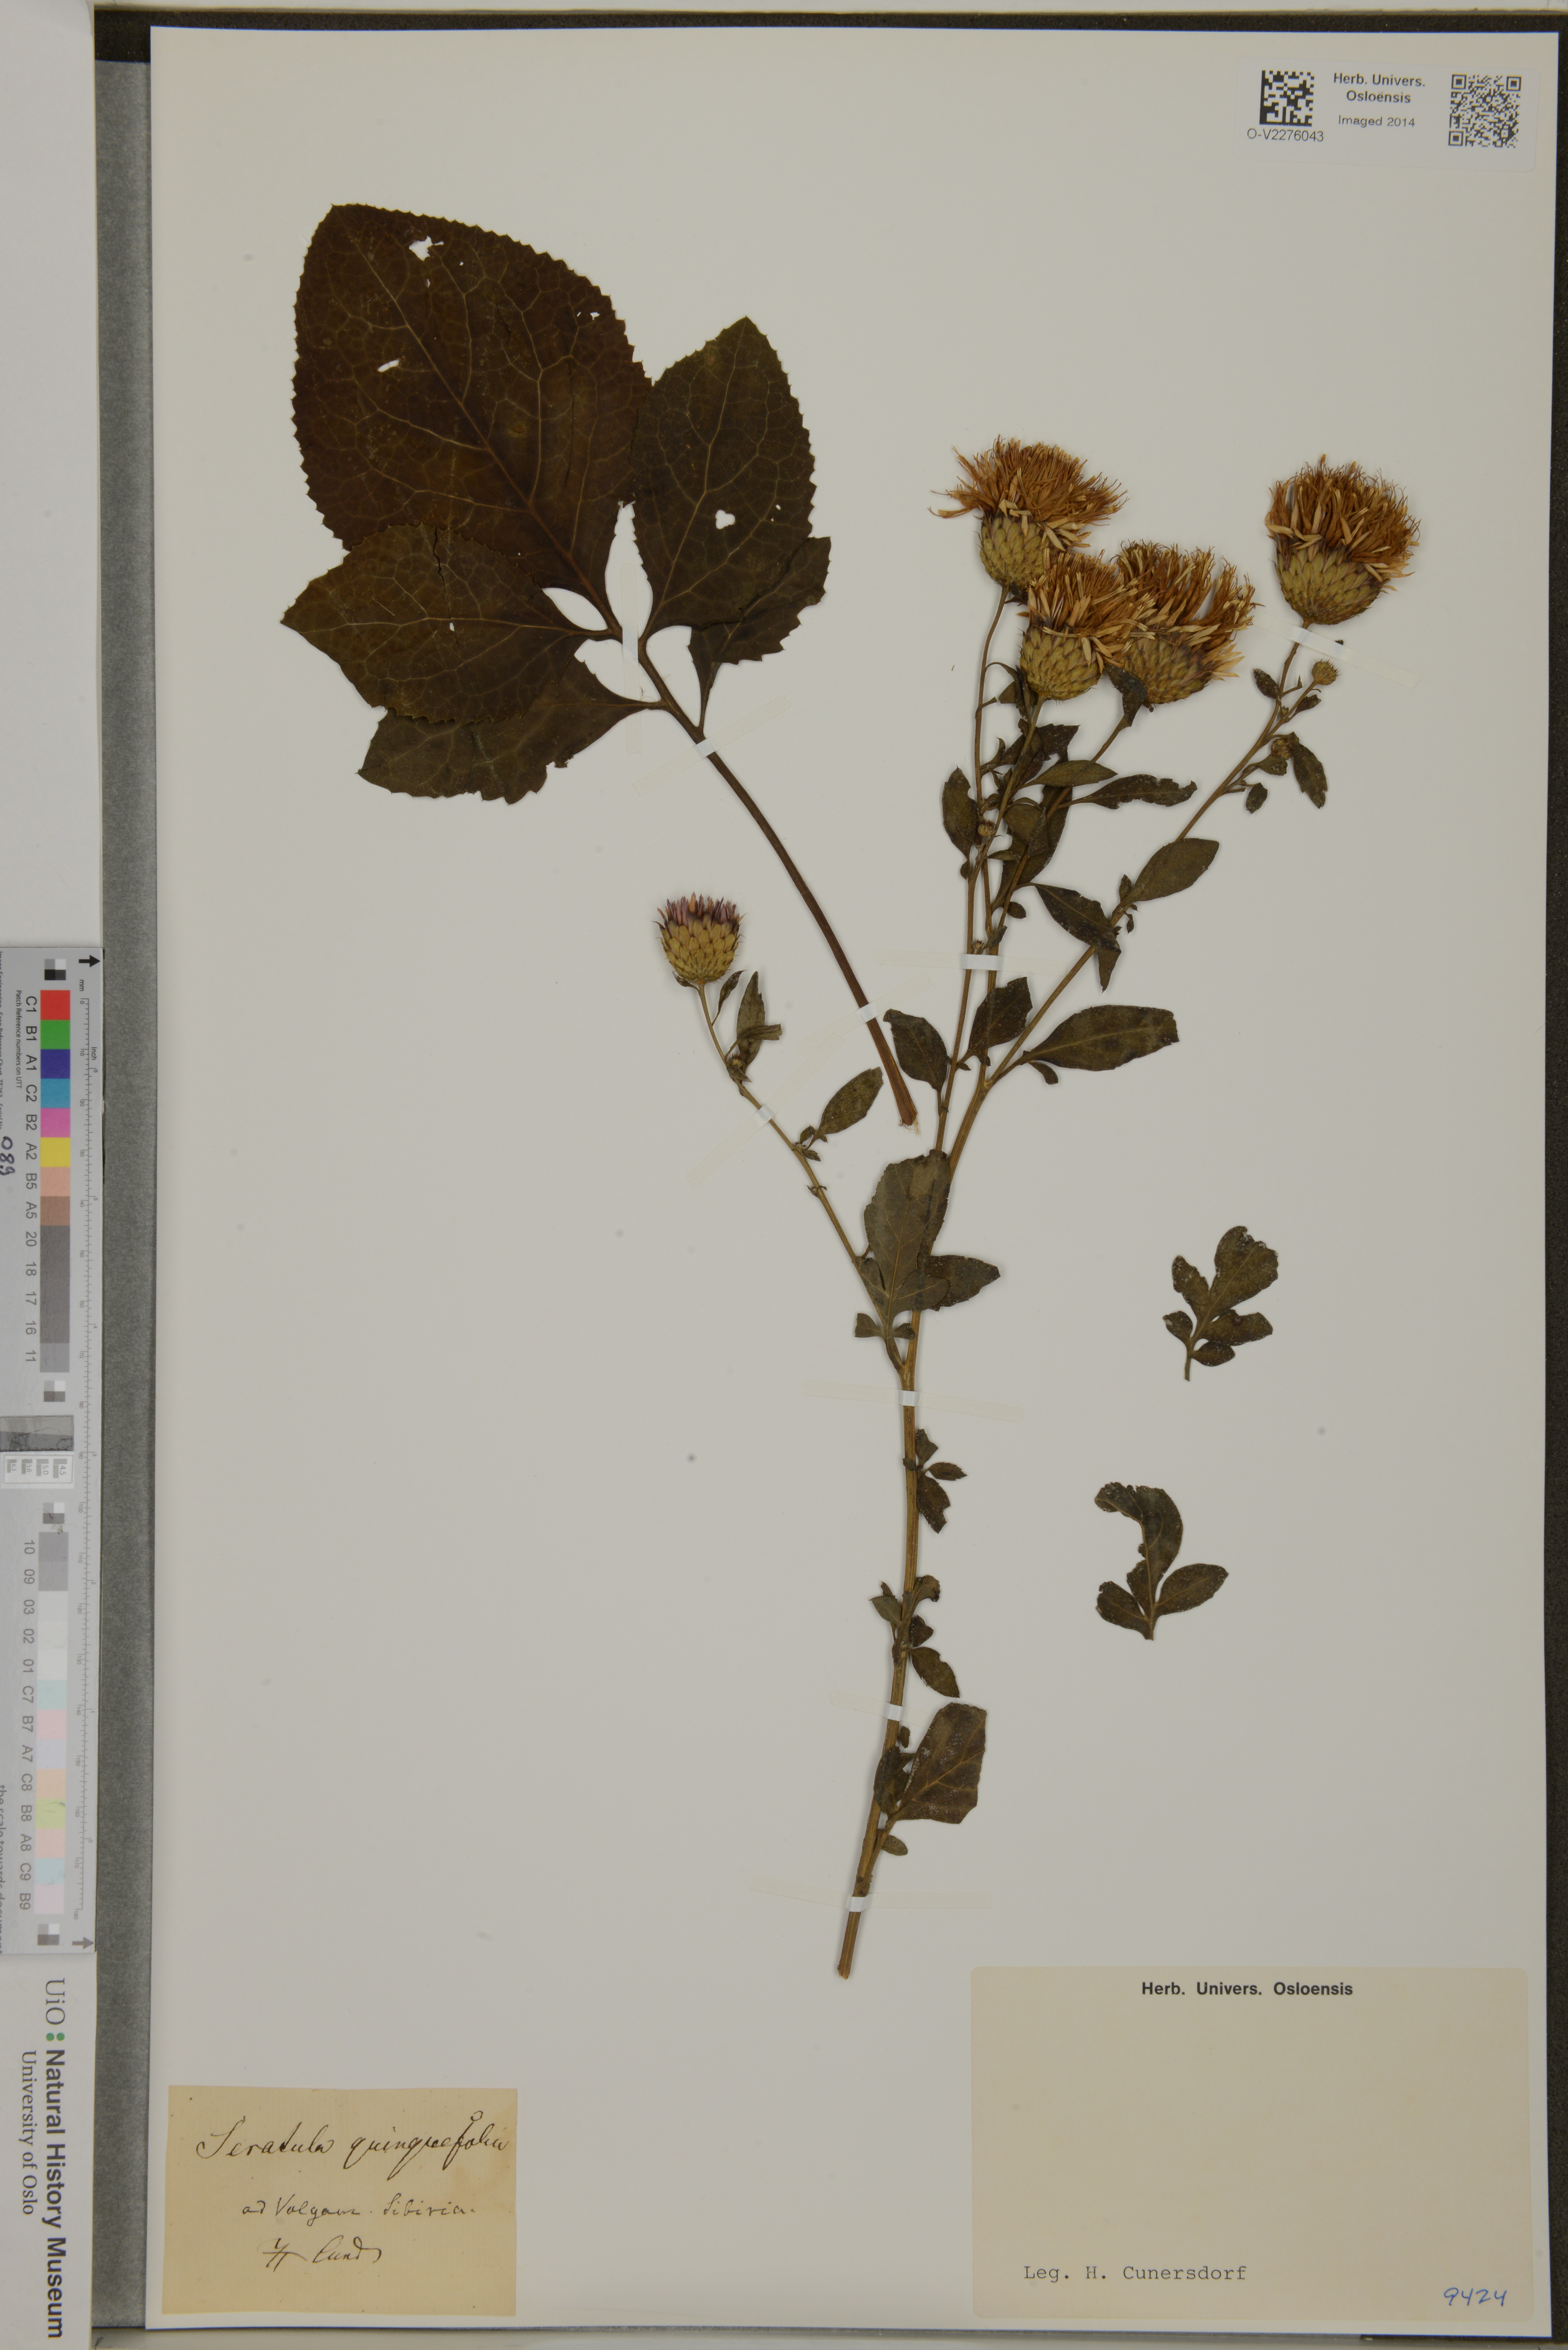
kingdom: Plantae
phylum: Tracheophyta
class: Magnoliopsida
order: Asterales
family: Asteraceae
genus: Klasea
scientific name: Klasea quinquefolia
